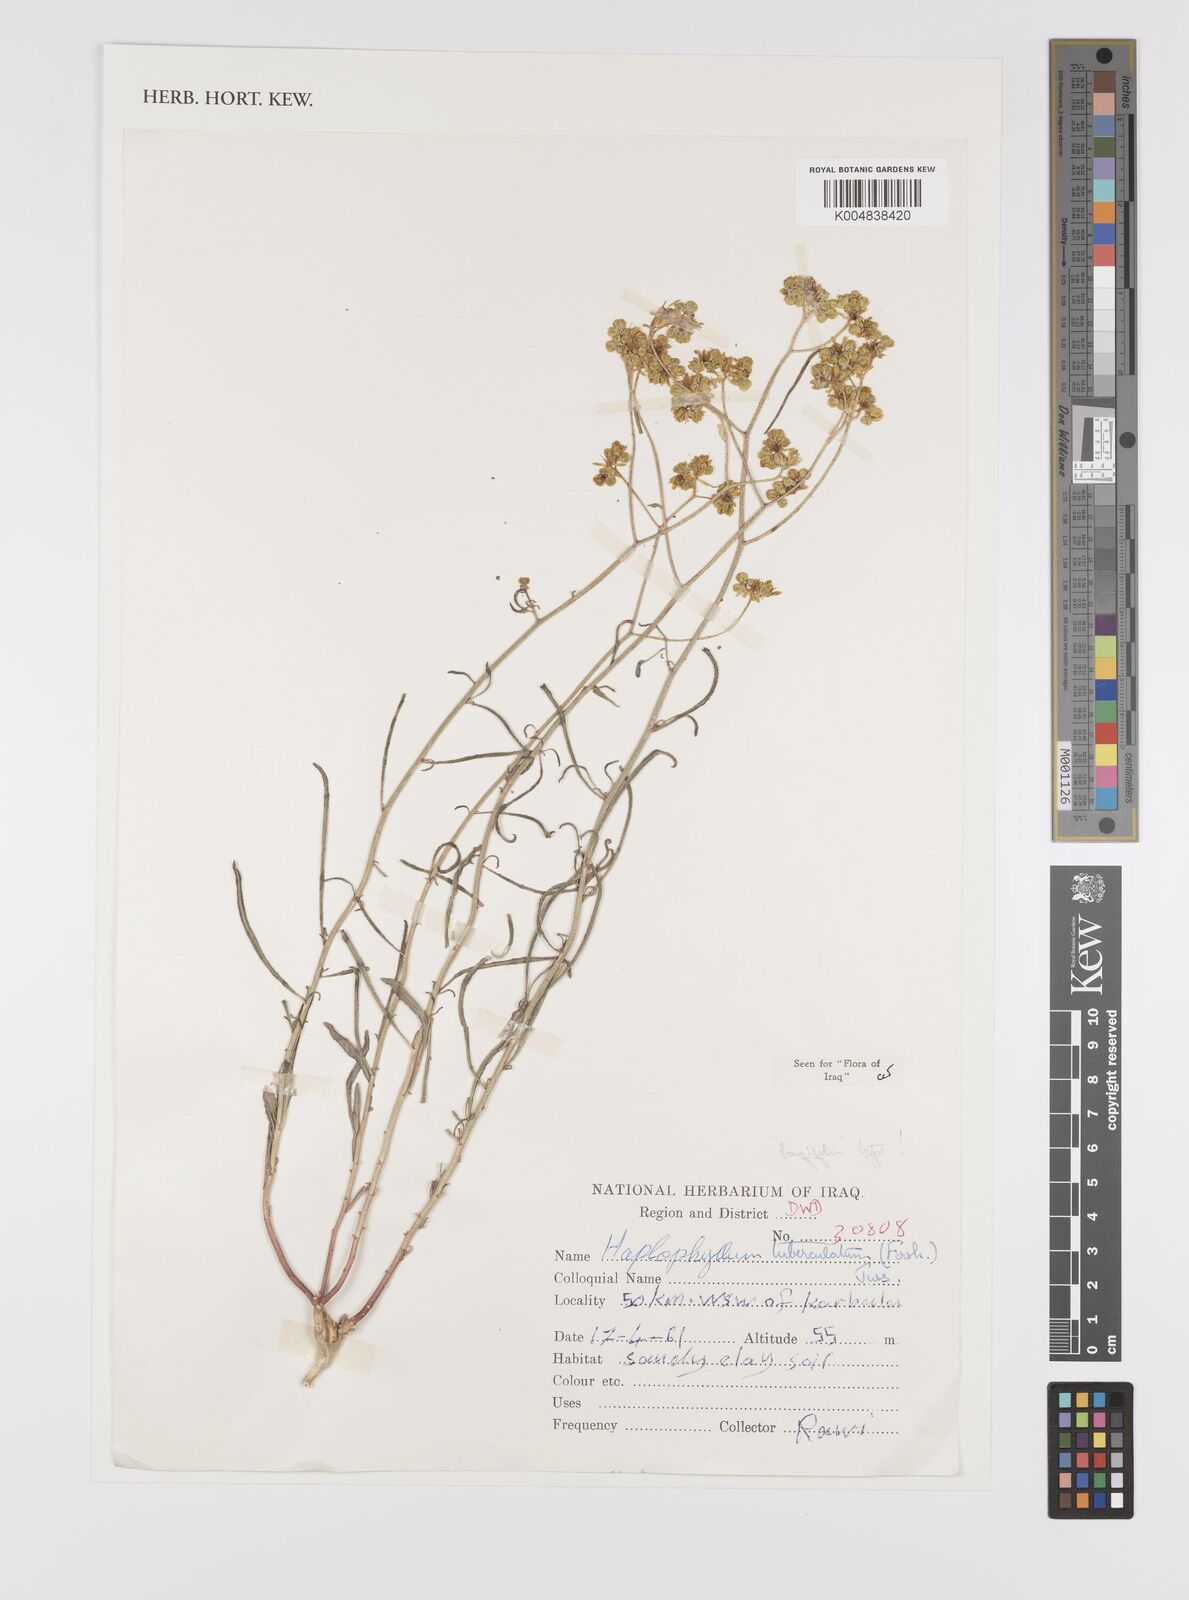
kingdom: Plantae
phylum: Tracheophyta
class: Magnoliopsida
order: Sapindales
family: Rutaceae
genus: Haplophyllum
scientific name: Haplophyllum tuberculatum
